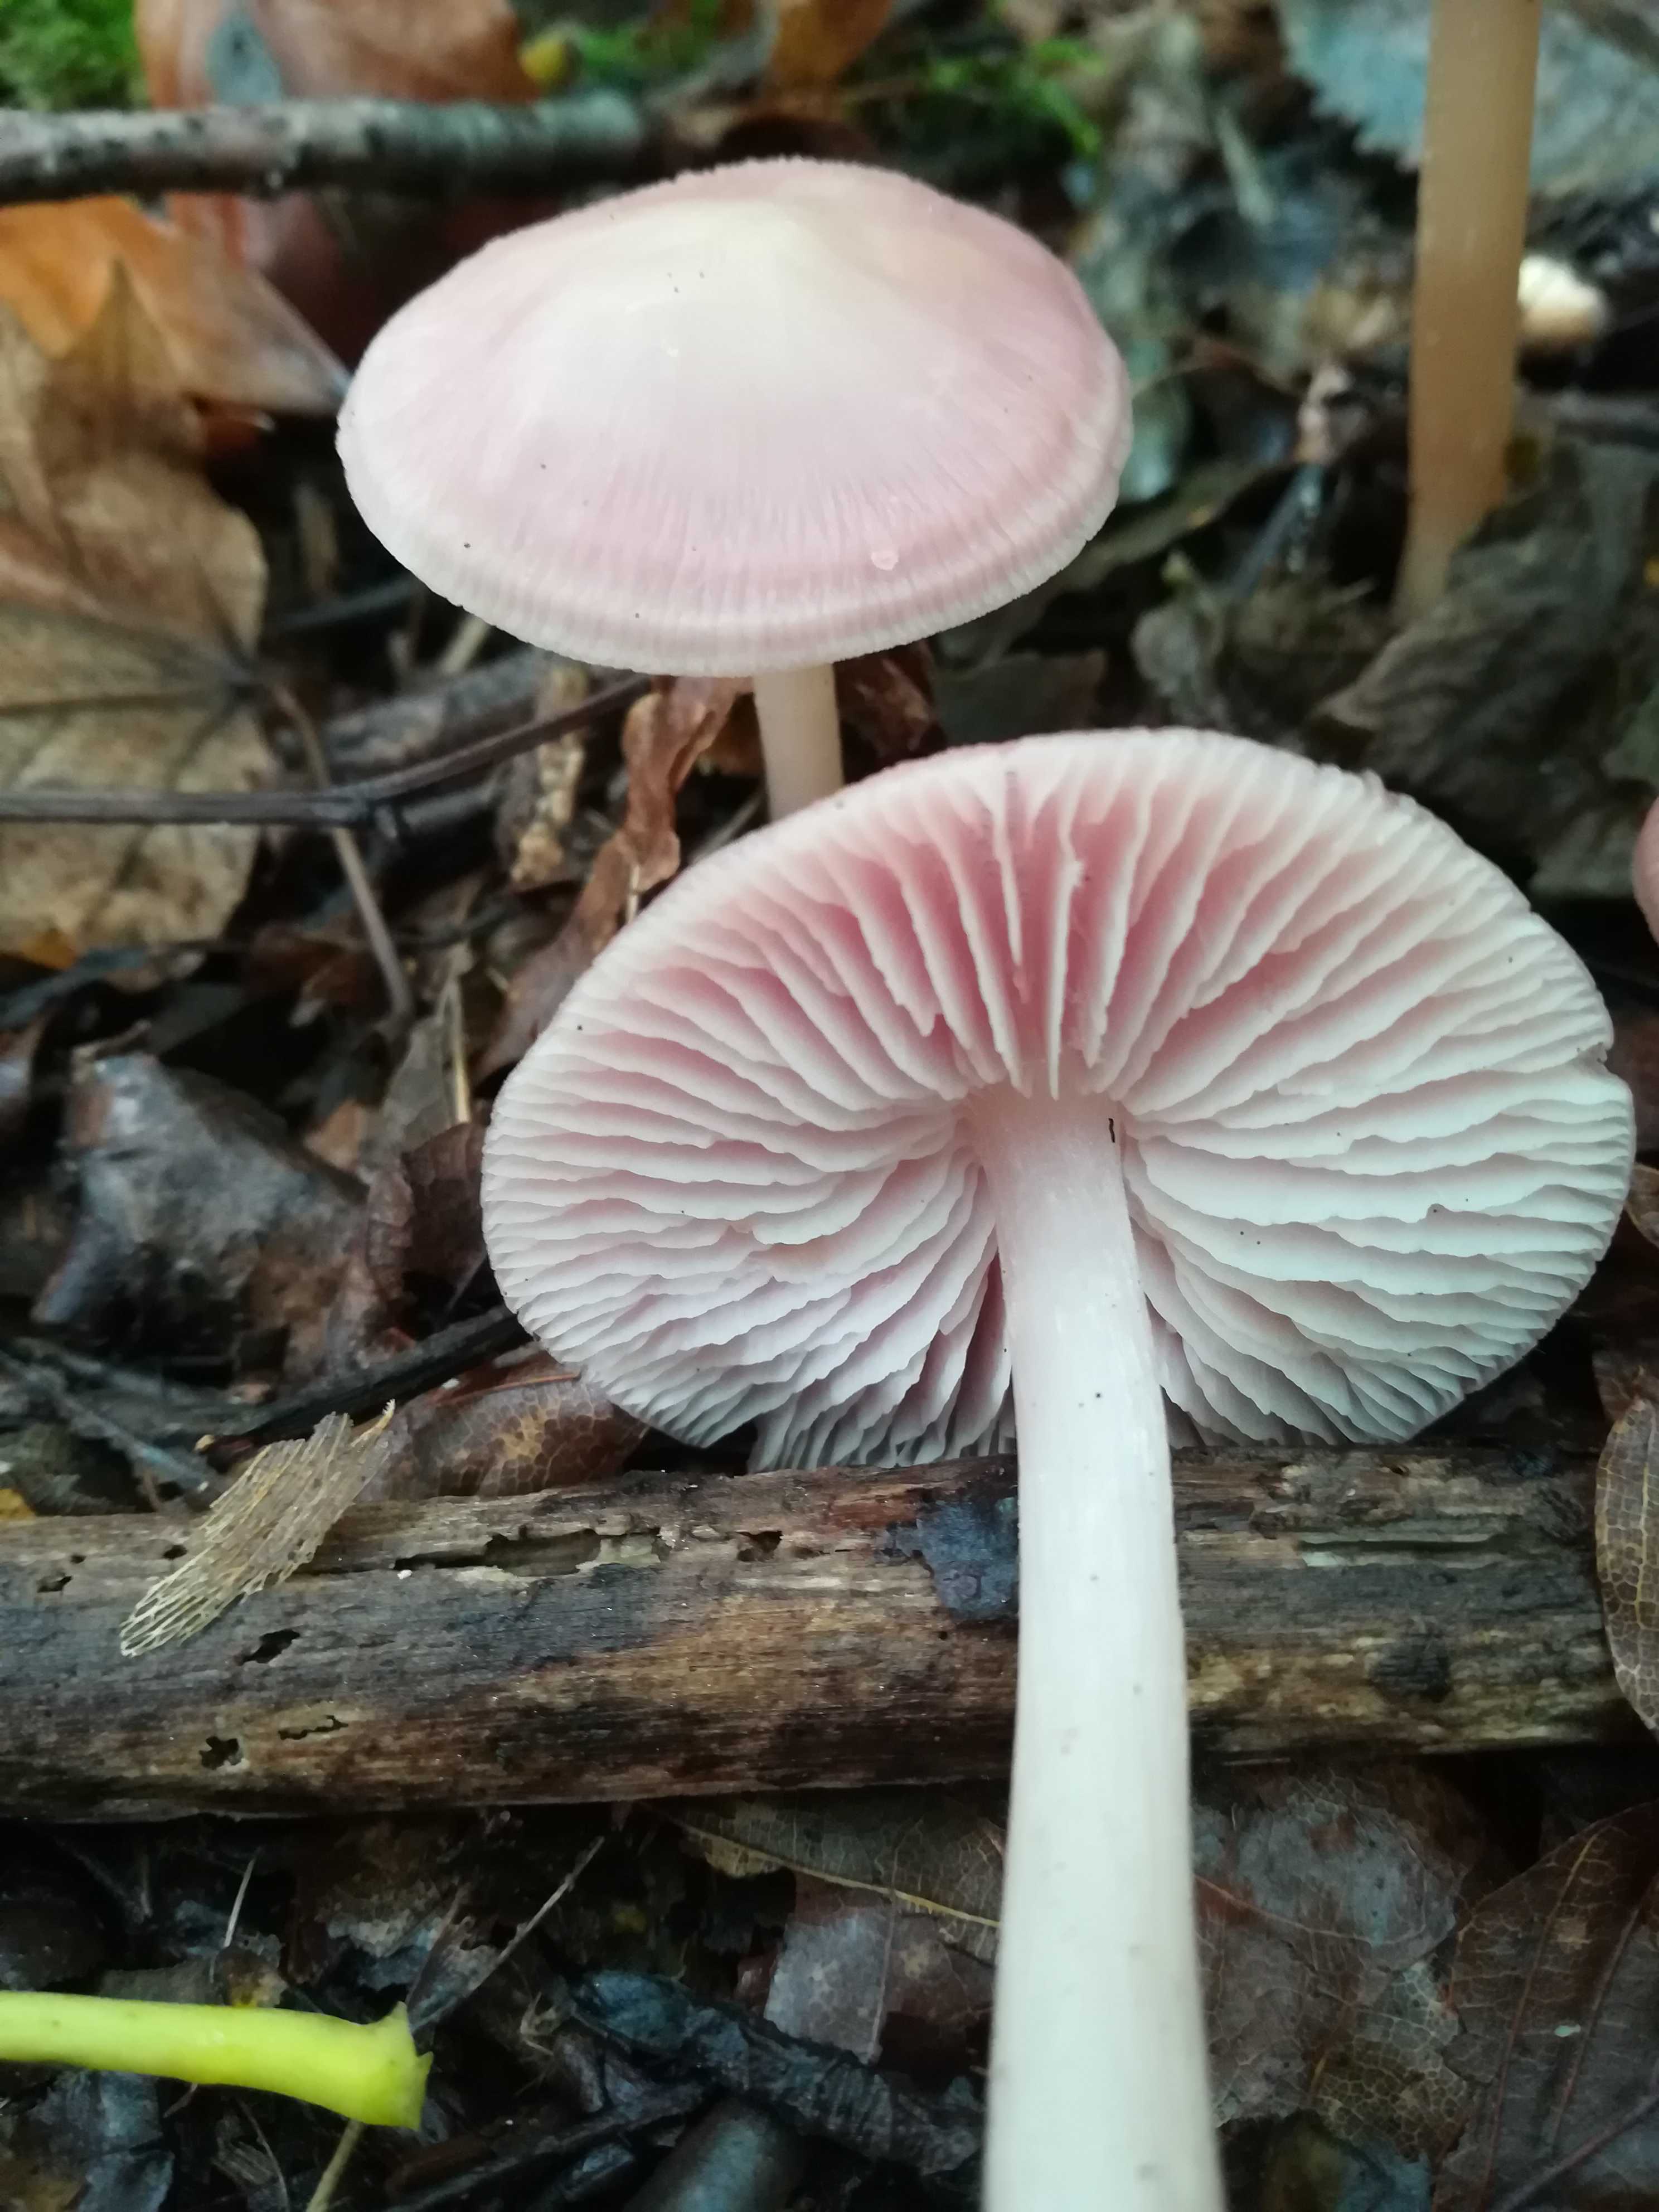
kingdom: Fungi
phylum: Basidiomycota
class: Agaricomycetes
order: Agaricales
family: Mycenaceae
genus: Mycena
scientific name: Mycena rosea
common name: rosa huesvamp
